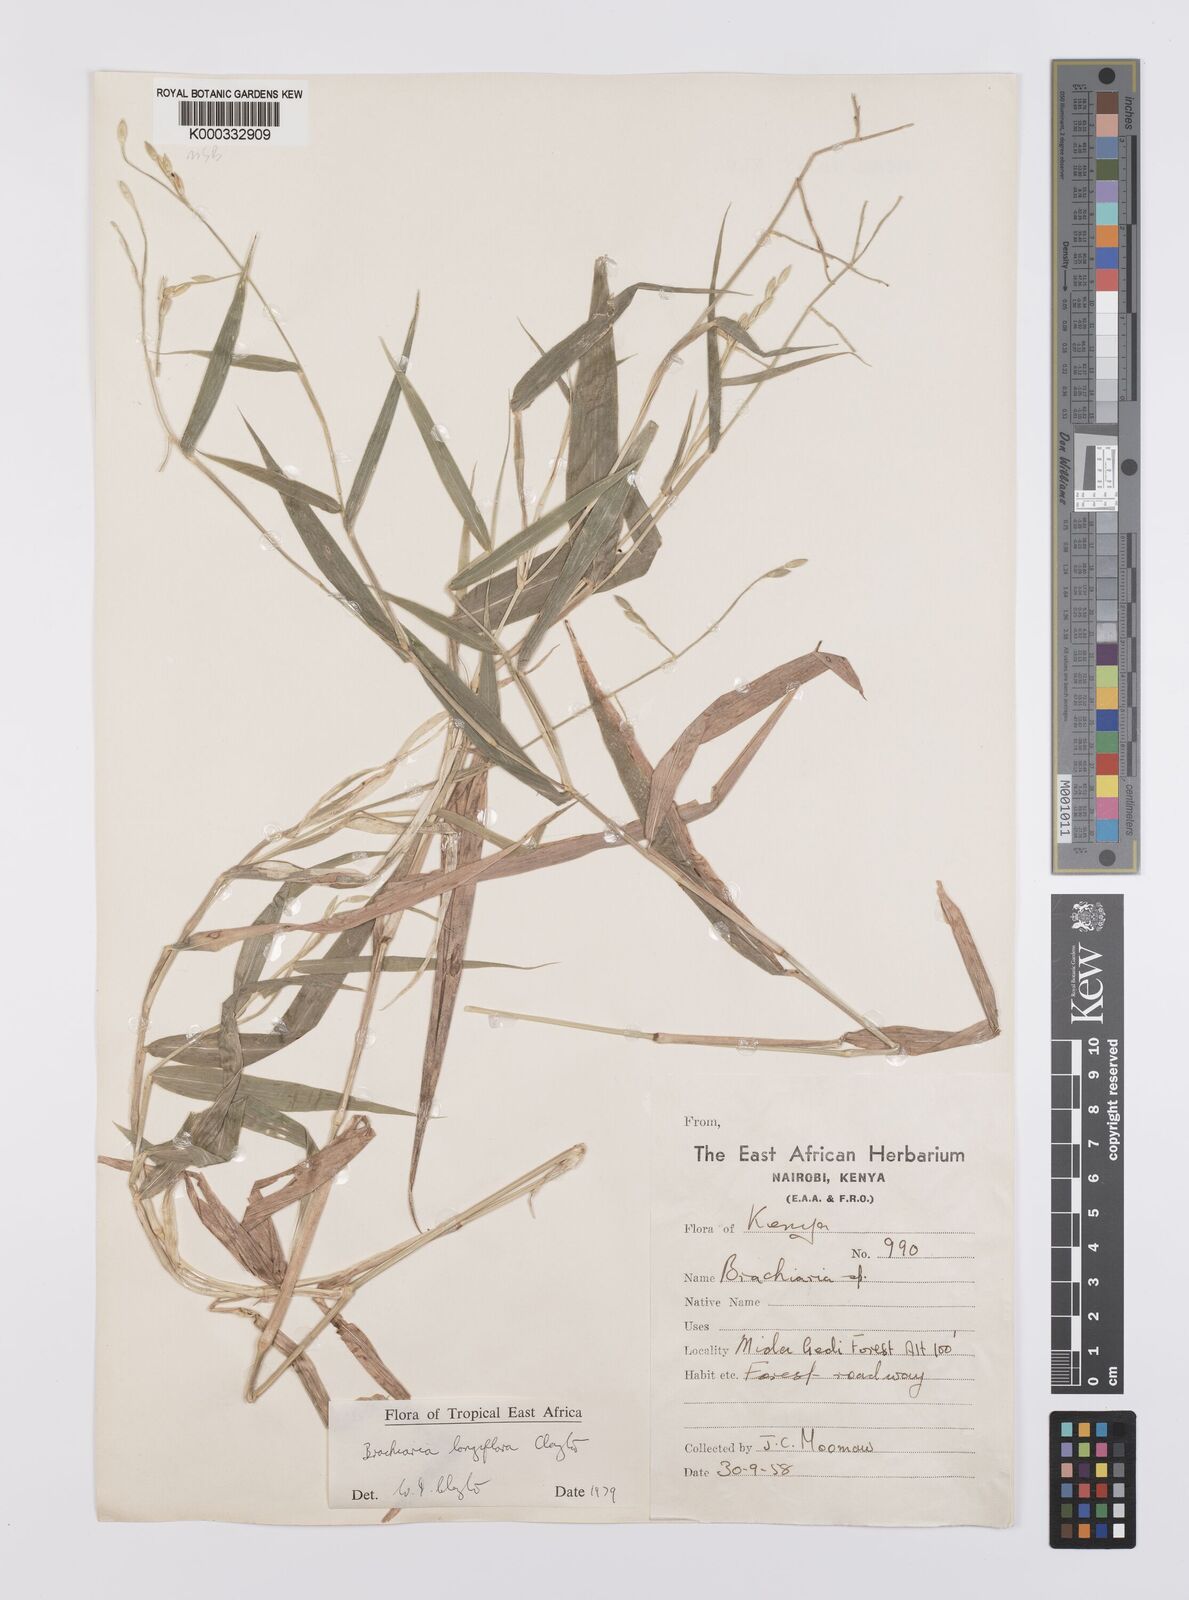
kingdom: Plantae
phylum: Tracheophyta
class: Liliopsida
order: Poales
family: Poaceae
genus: Urochloa
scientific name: Urochloa Brachiaria longiflora
